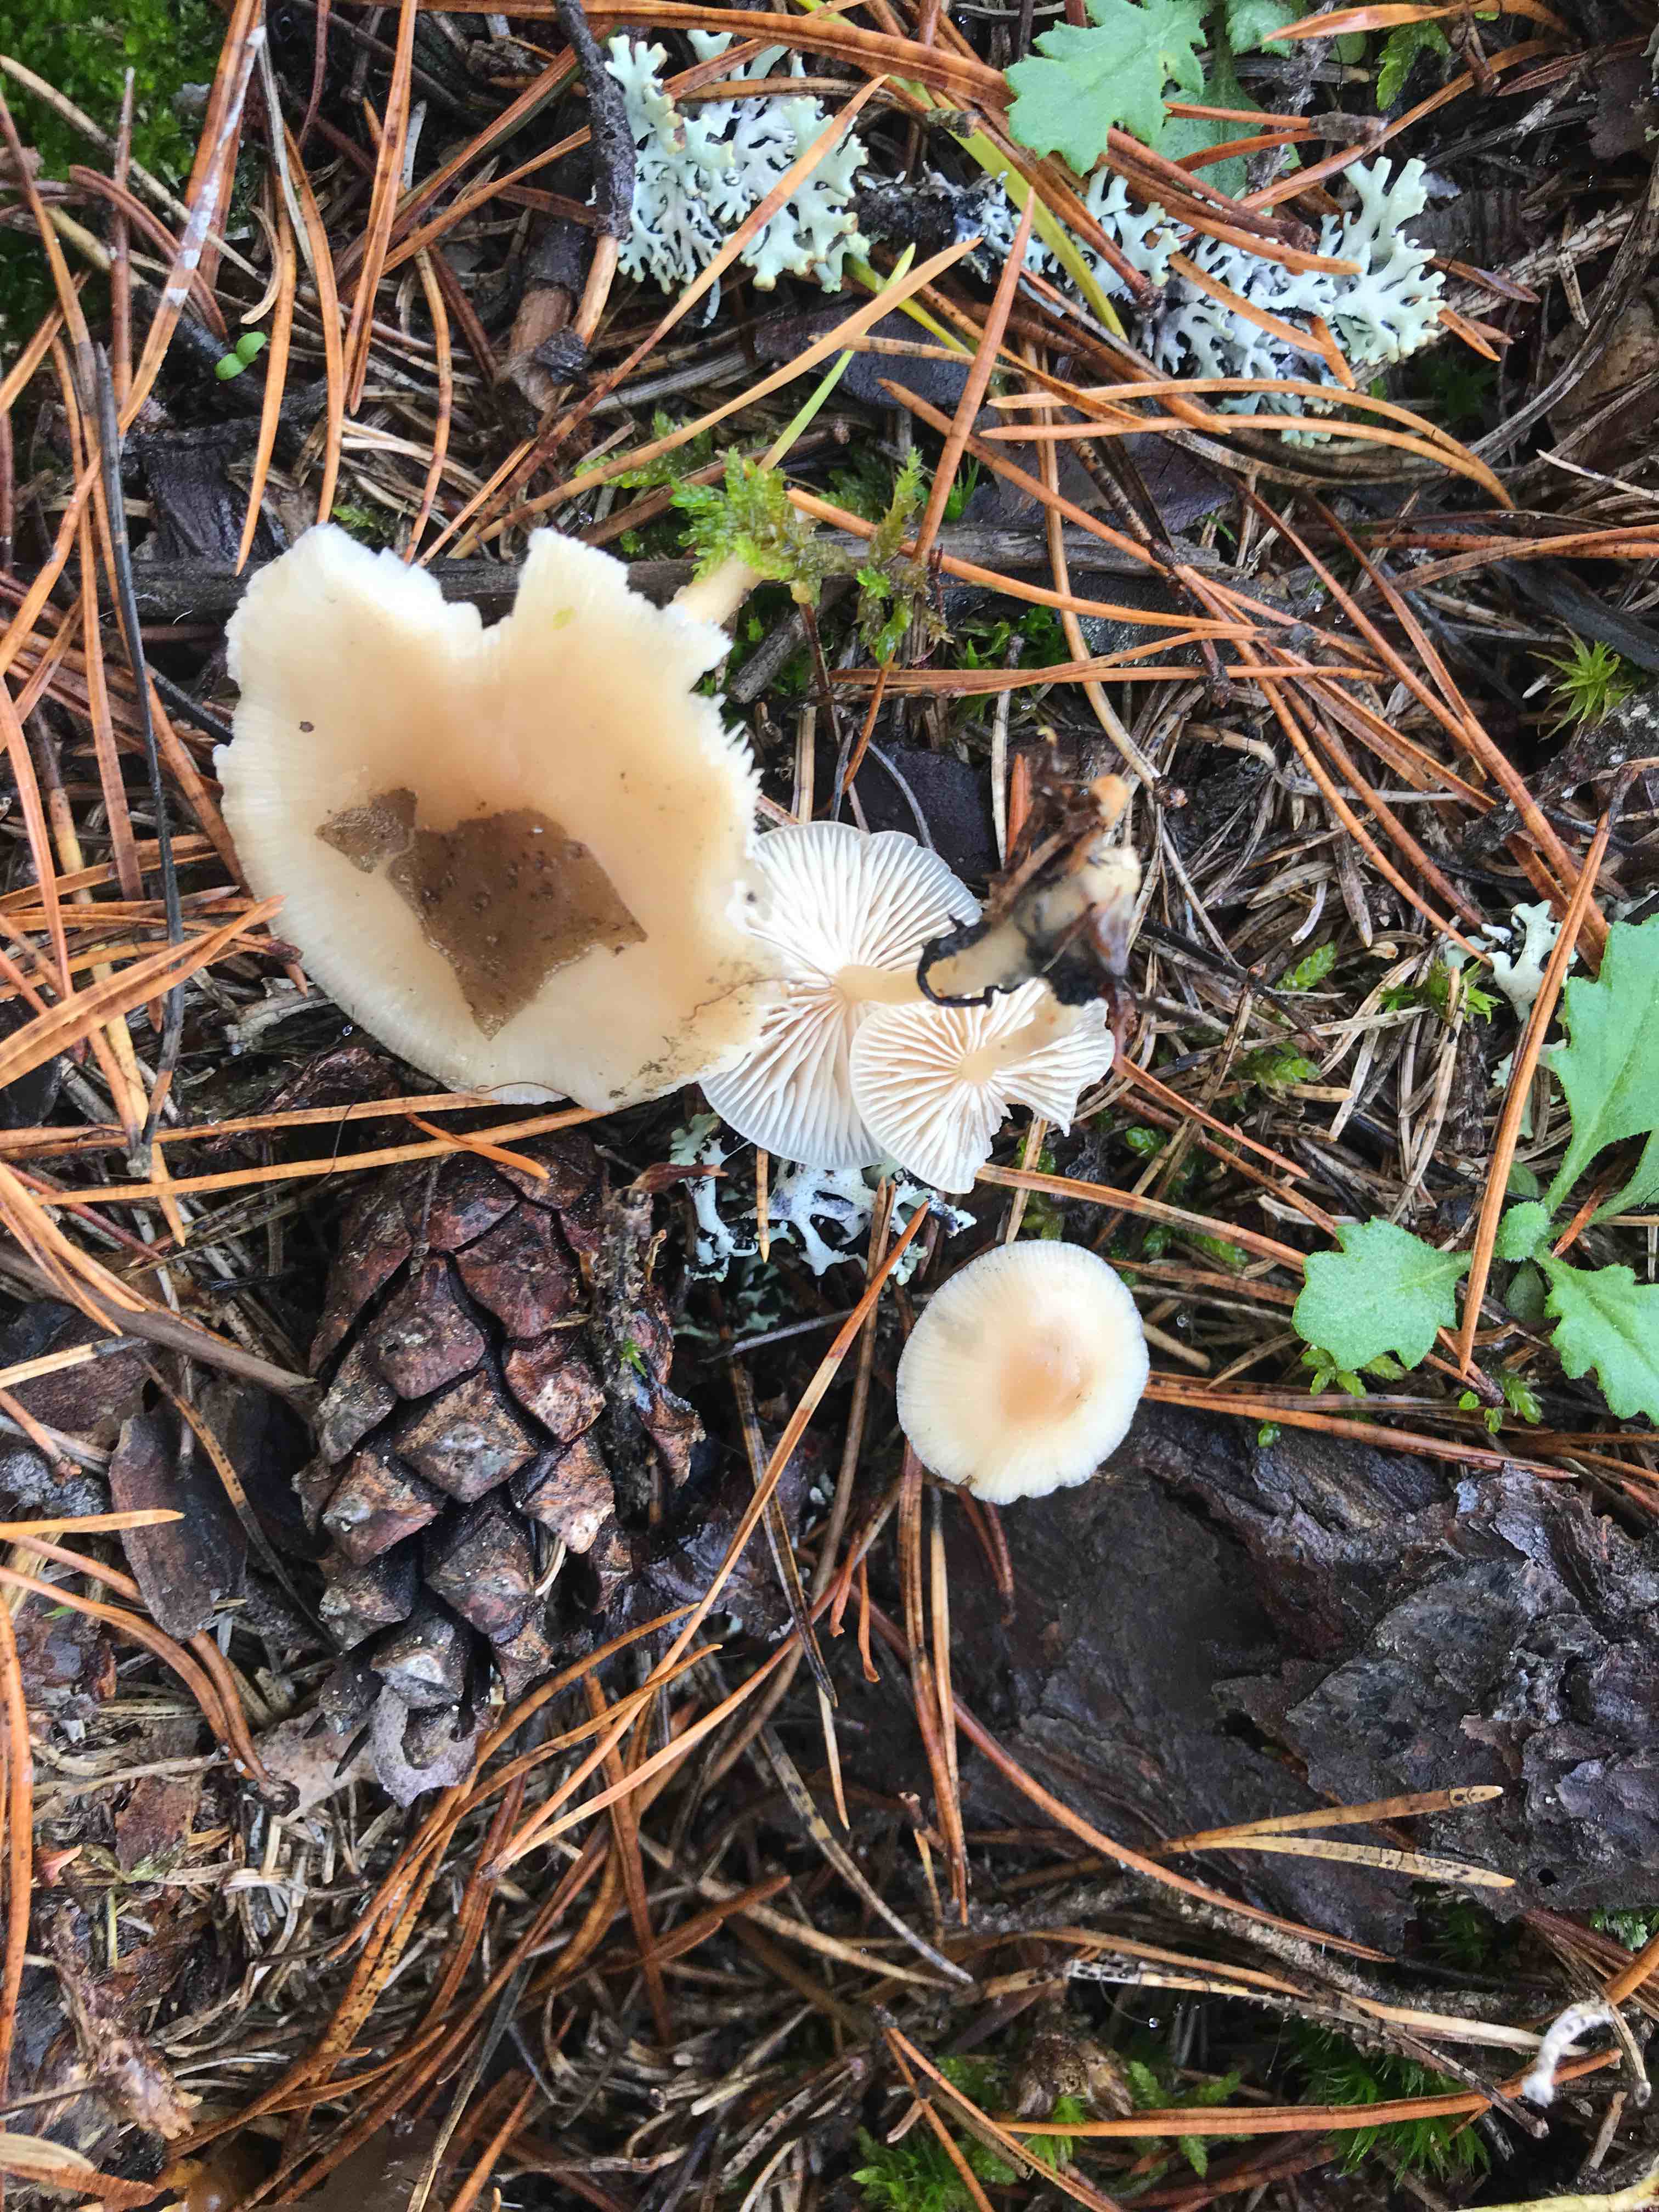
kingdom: Fungi
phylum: Basidiomycota
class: Agaricomycetes
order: Agaricales
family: Tricholomataceae
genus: Clitocybe
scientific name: Clitocybe
